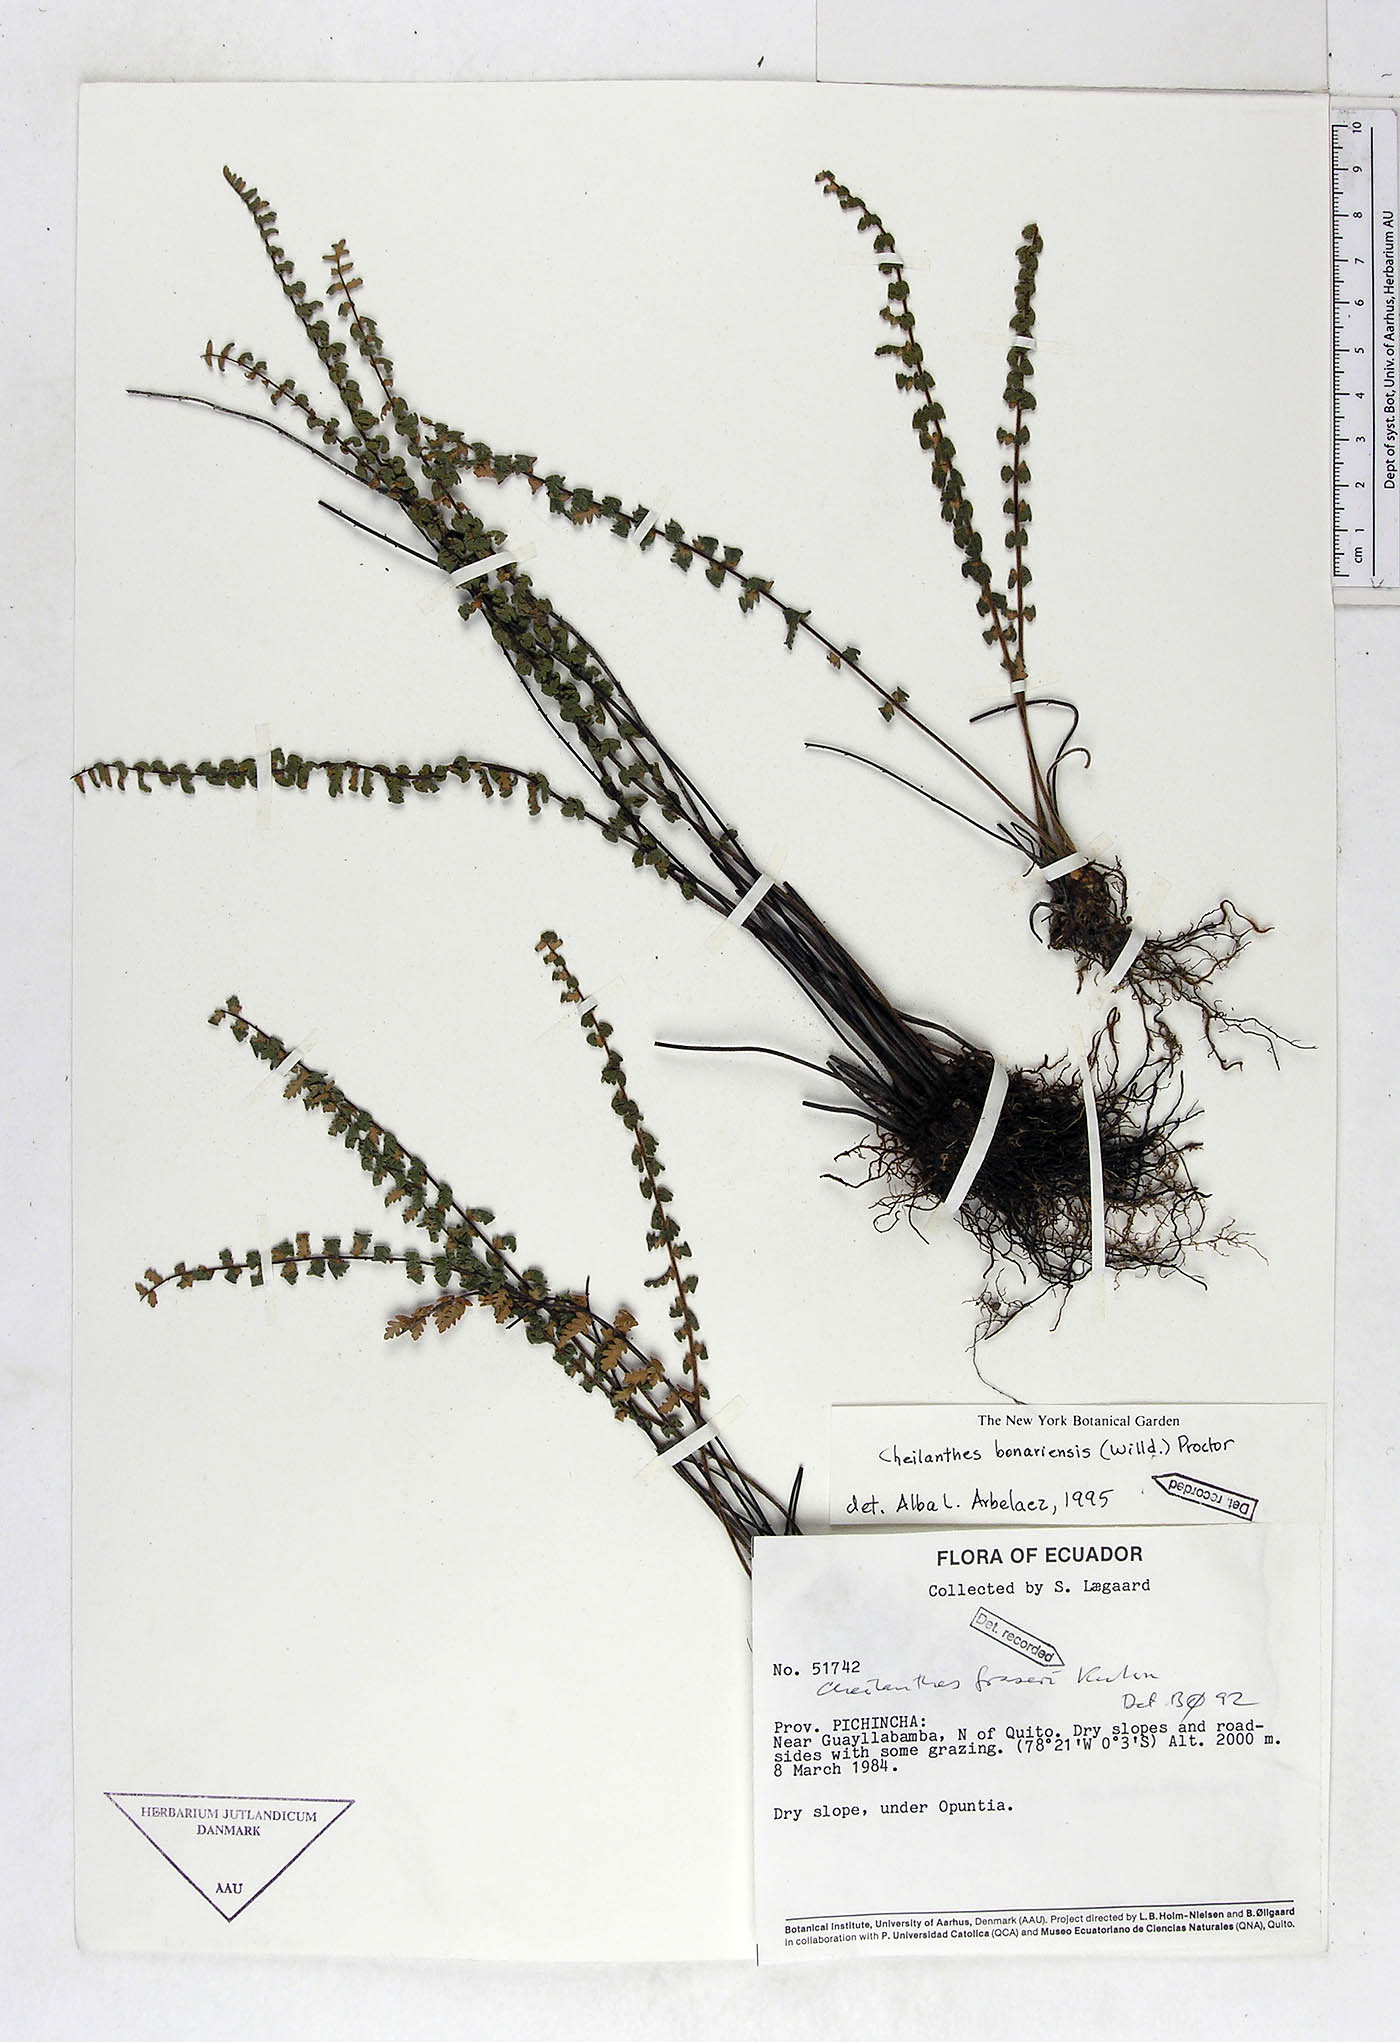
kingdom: Plantae
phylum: Tracheophyta
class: Polypodiopsida
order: Polypodiales
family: Pteridaceae
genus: Myriopteris
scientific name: Myriopteris aurea
